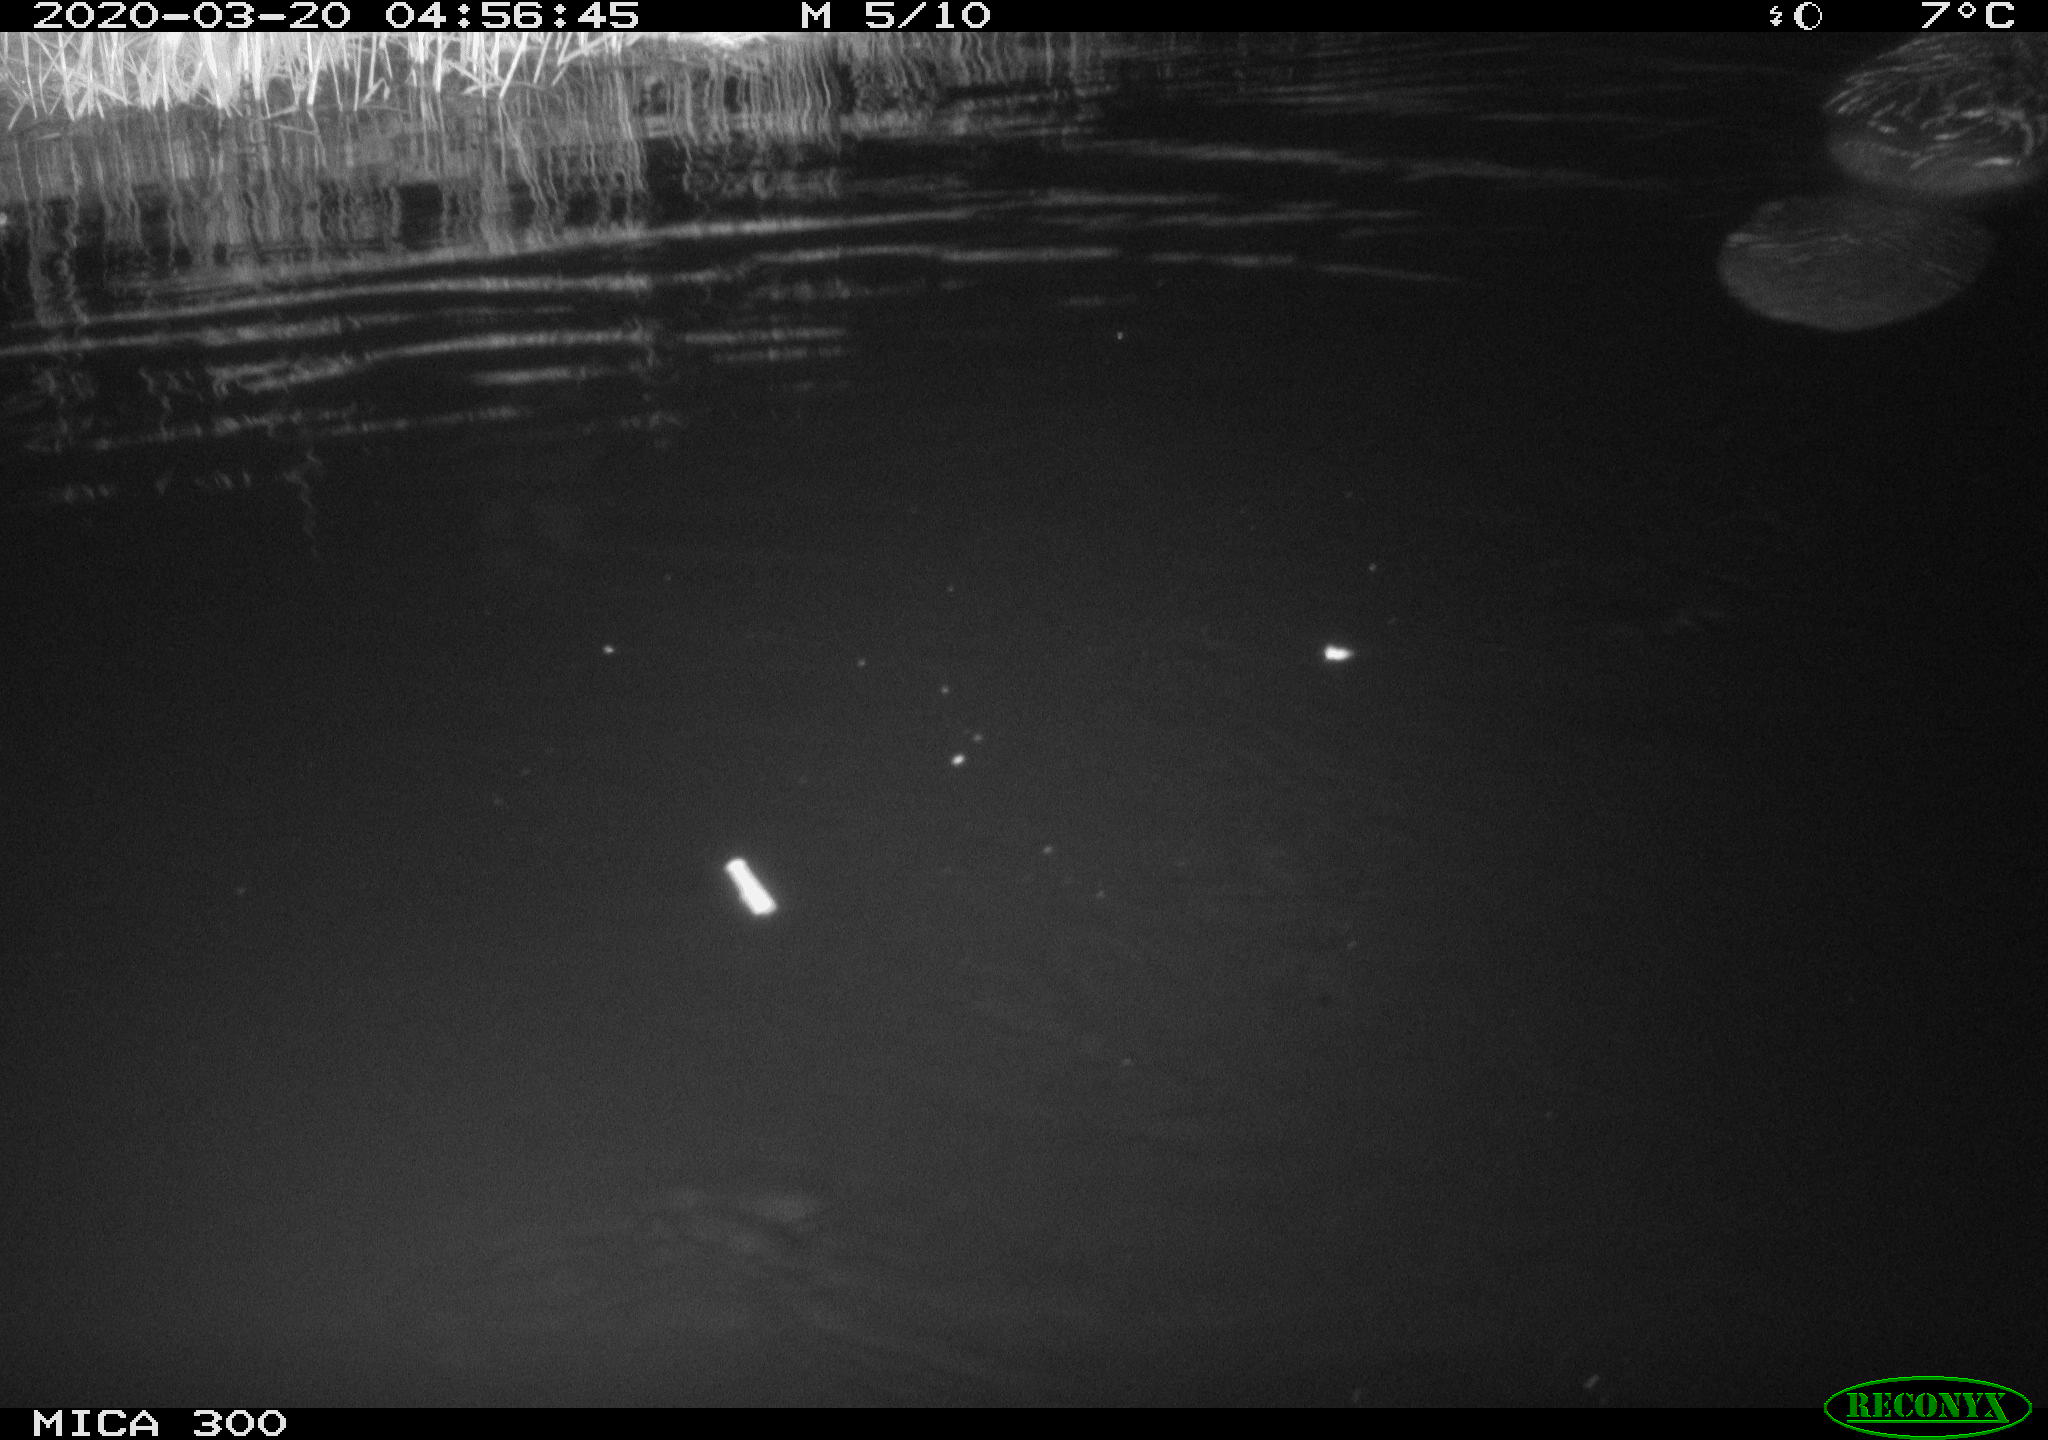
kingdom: Animalia
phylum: Chordata
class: Mammalia
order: Rodentia
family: Castoridae
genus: Castor
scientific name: Castor fiber
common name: Eurasian beaver
